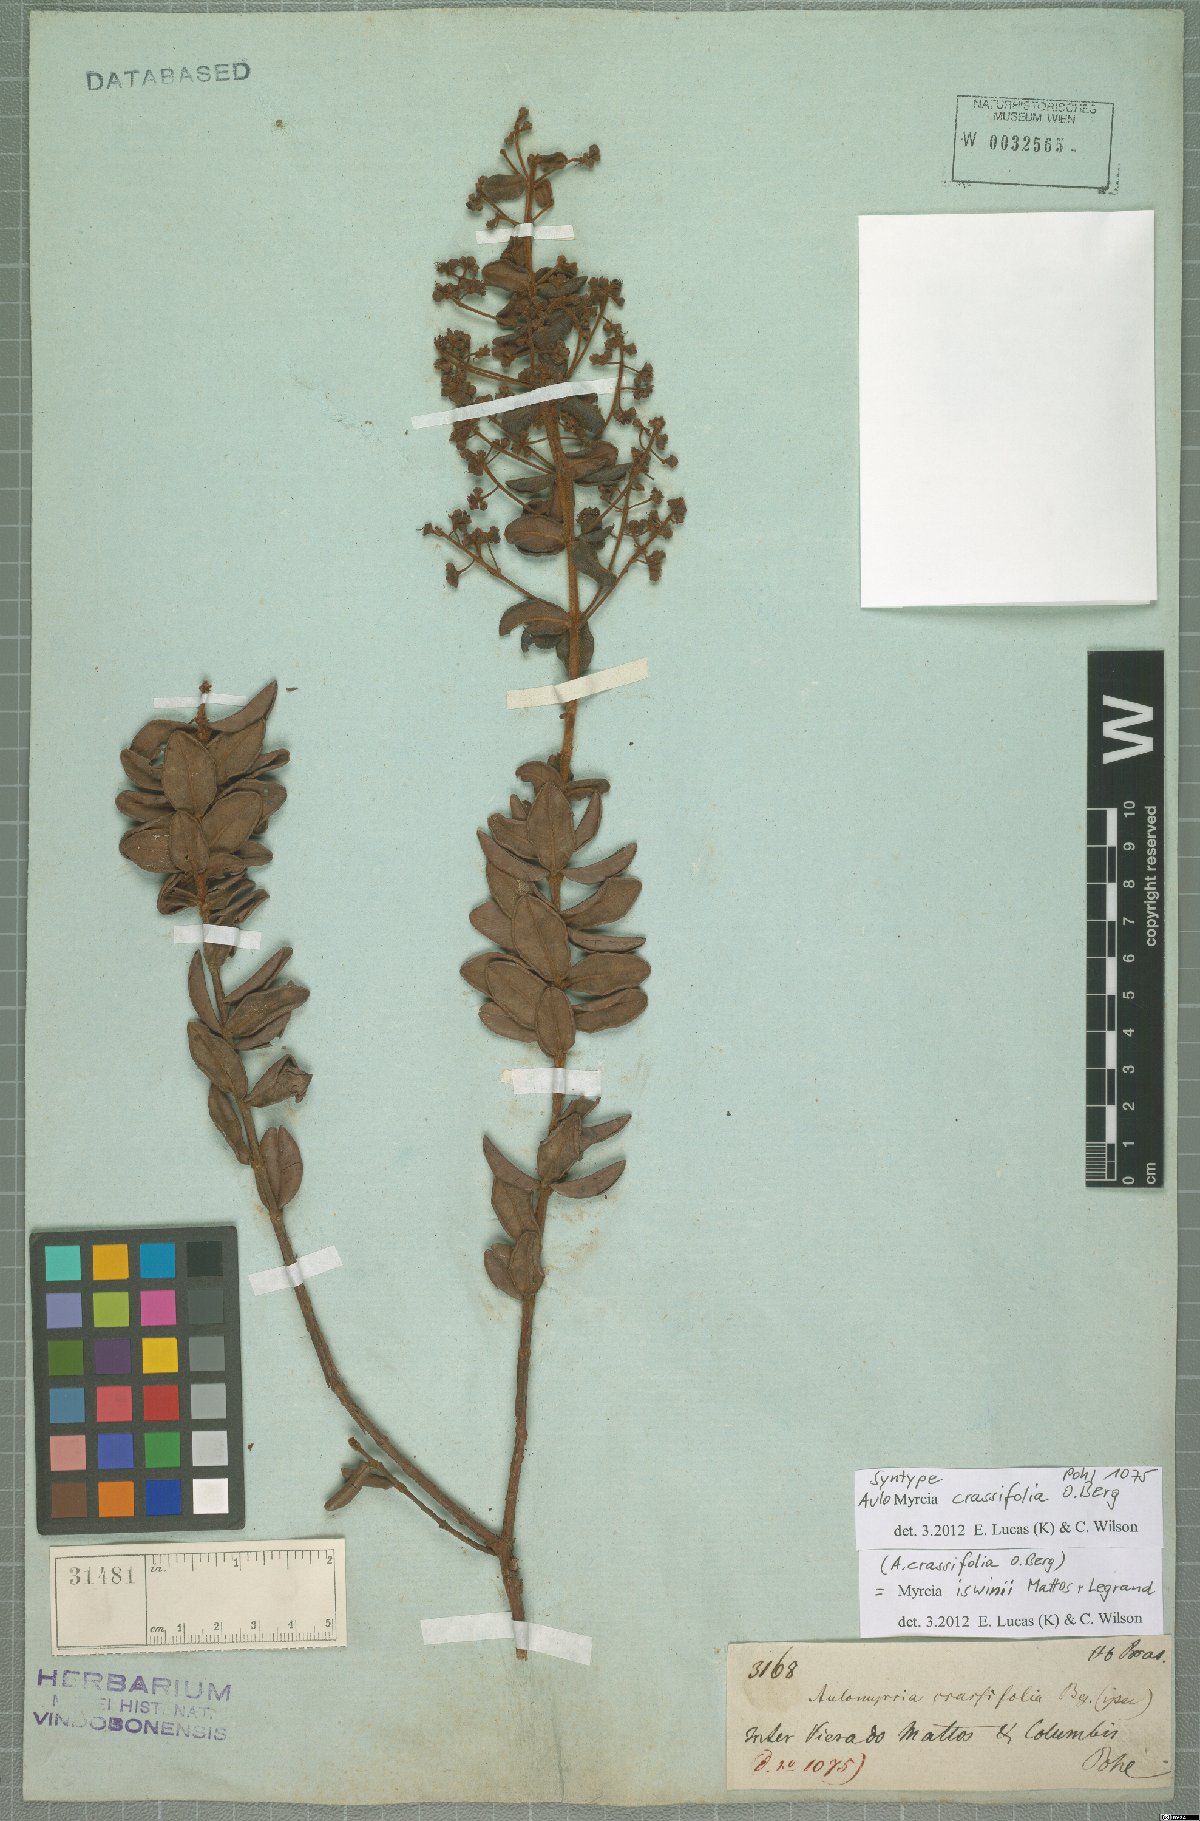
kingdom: Plantae
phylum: Tracheophyta
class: Magnoliopsida
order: Myrtales
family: Myrtaceae
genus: Myrcia
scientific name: Myrcia rufipes
